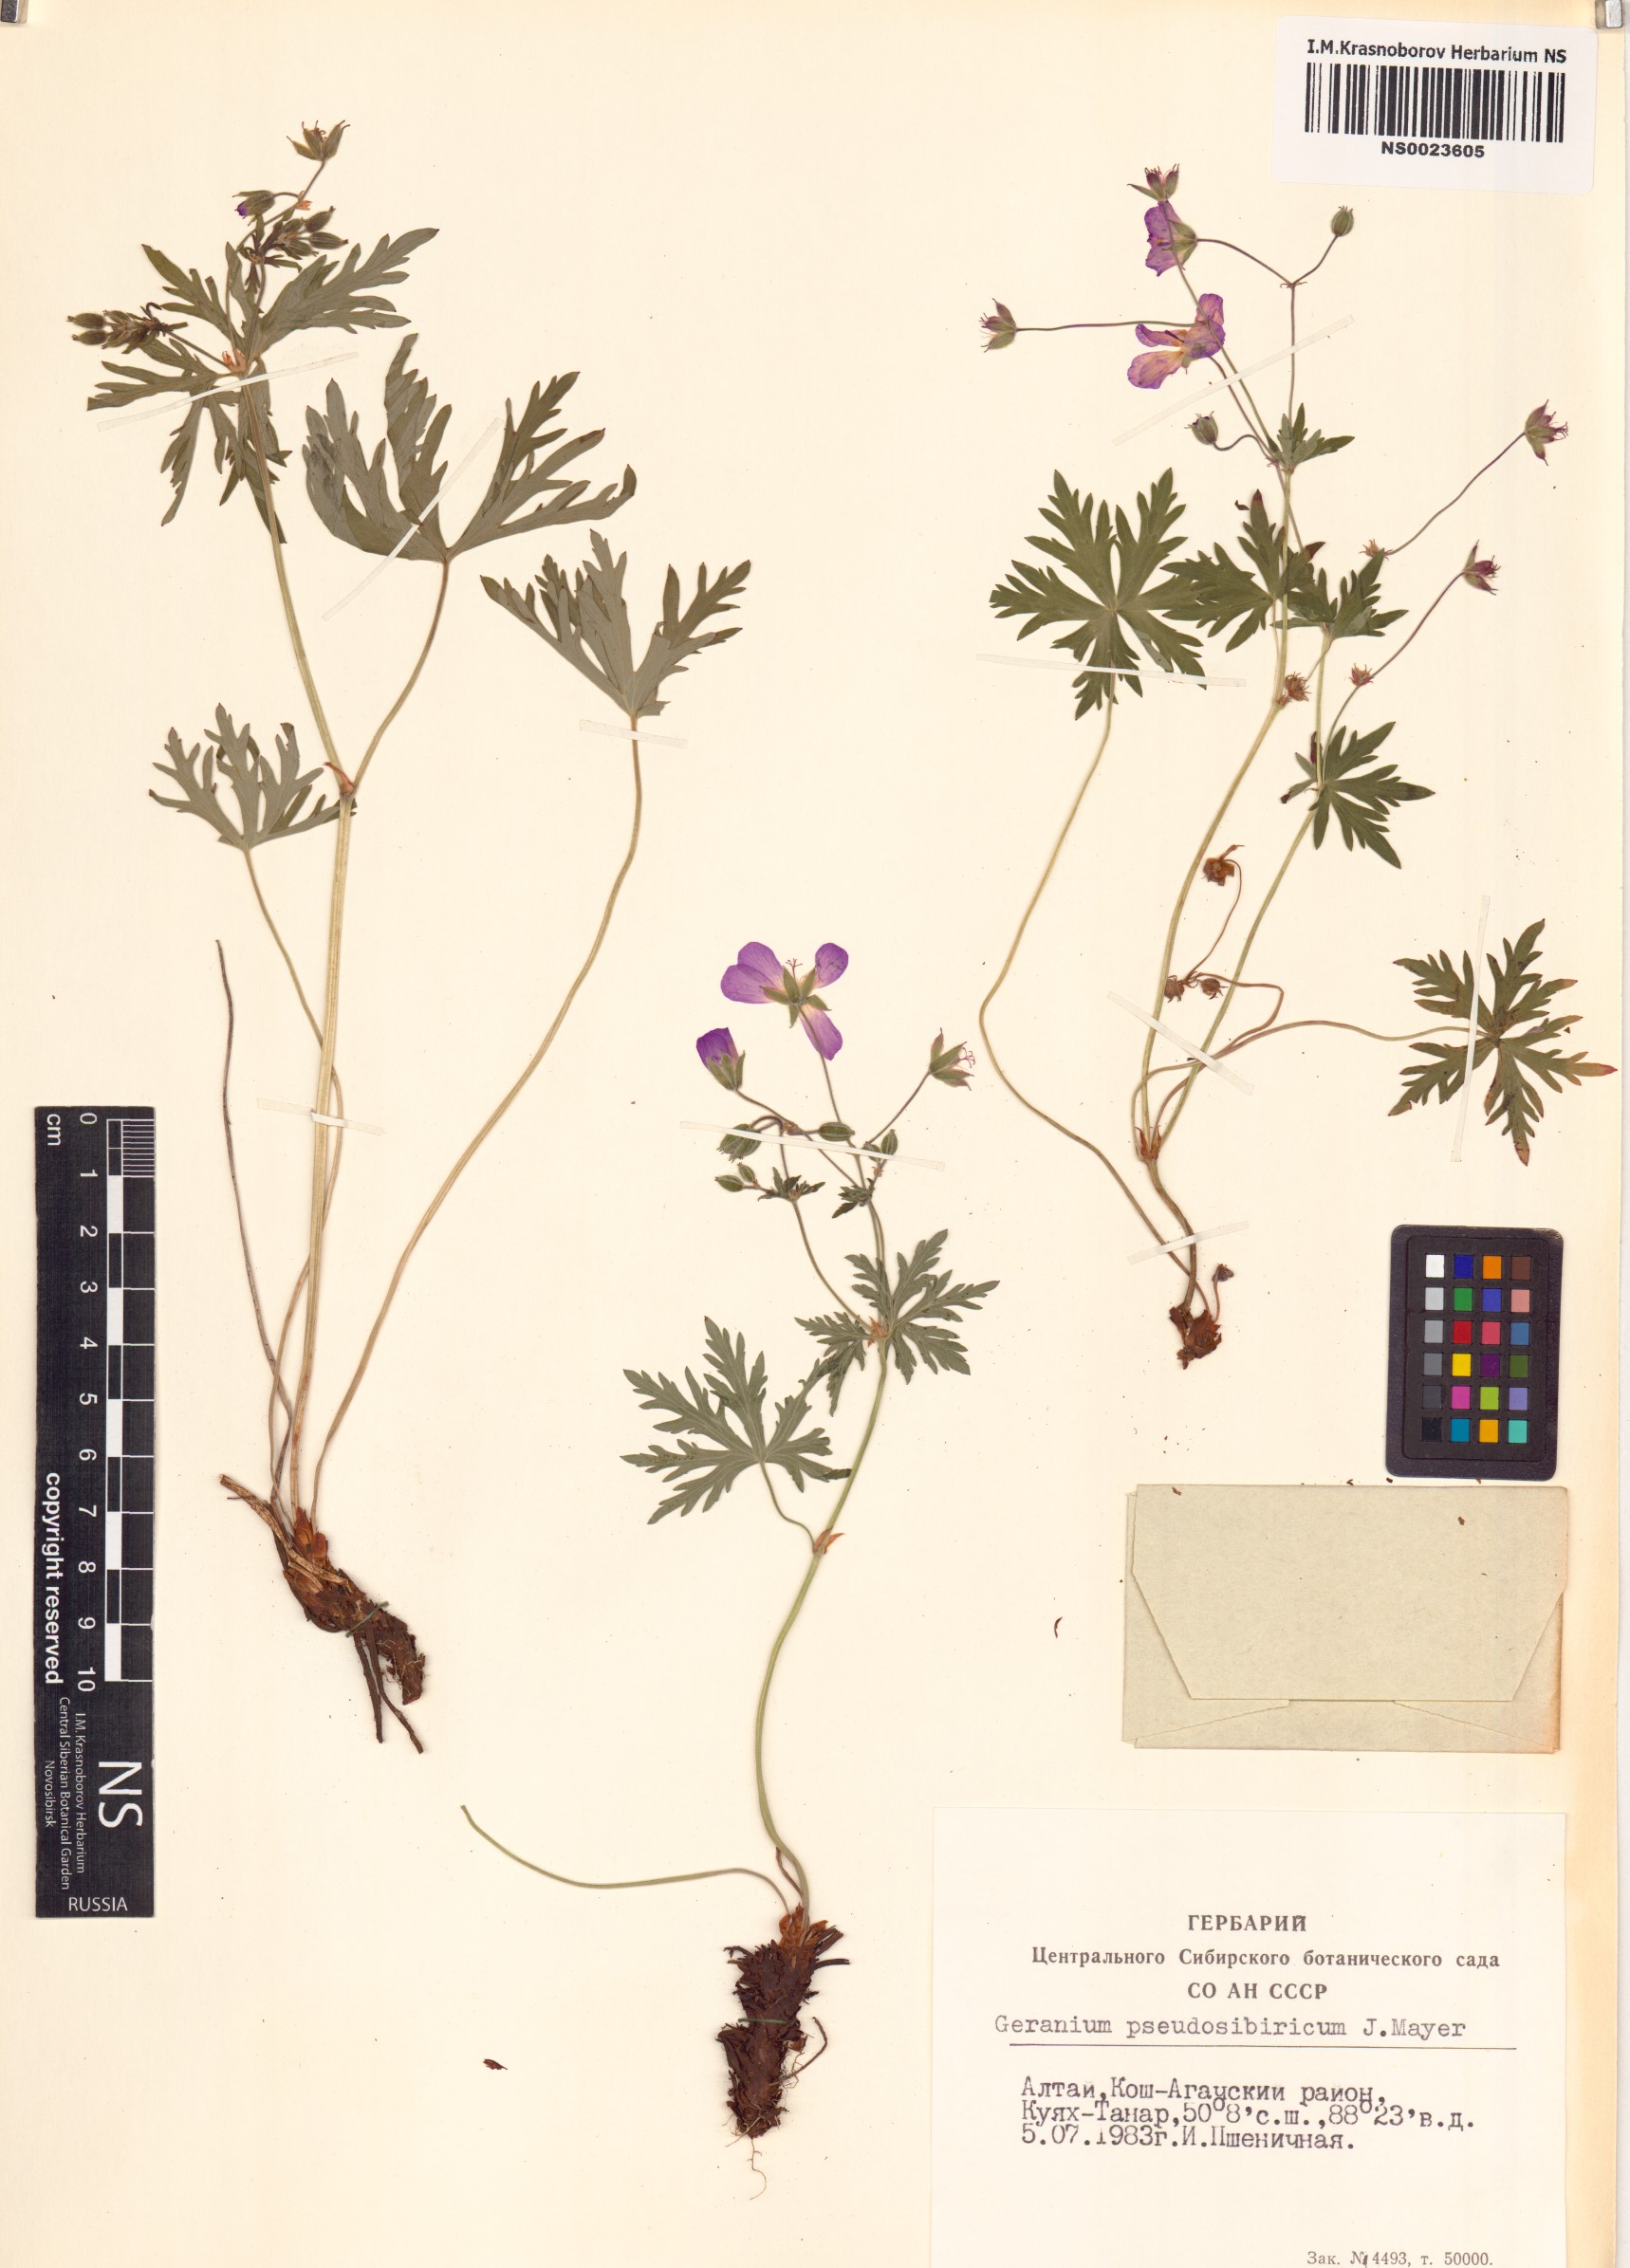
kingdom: Plantae
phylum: Tracheophyta
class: Magnoliopsida
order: Geraniales
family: Geraniaceae
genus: Geranium
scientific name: Geranium pseudosibiricum
